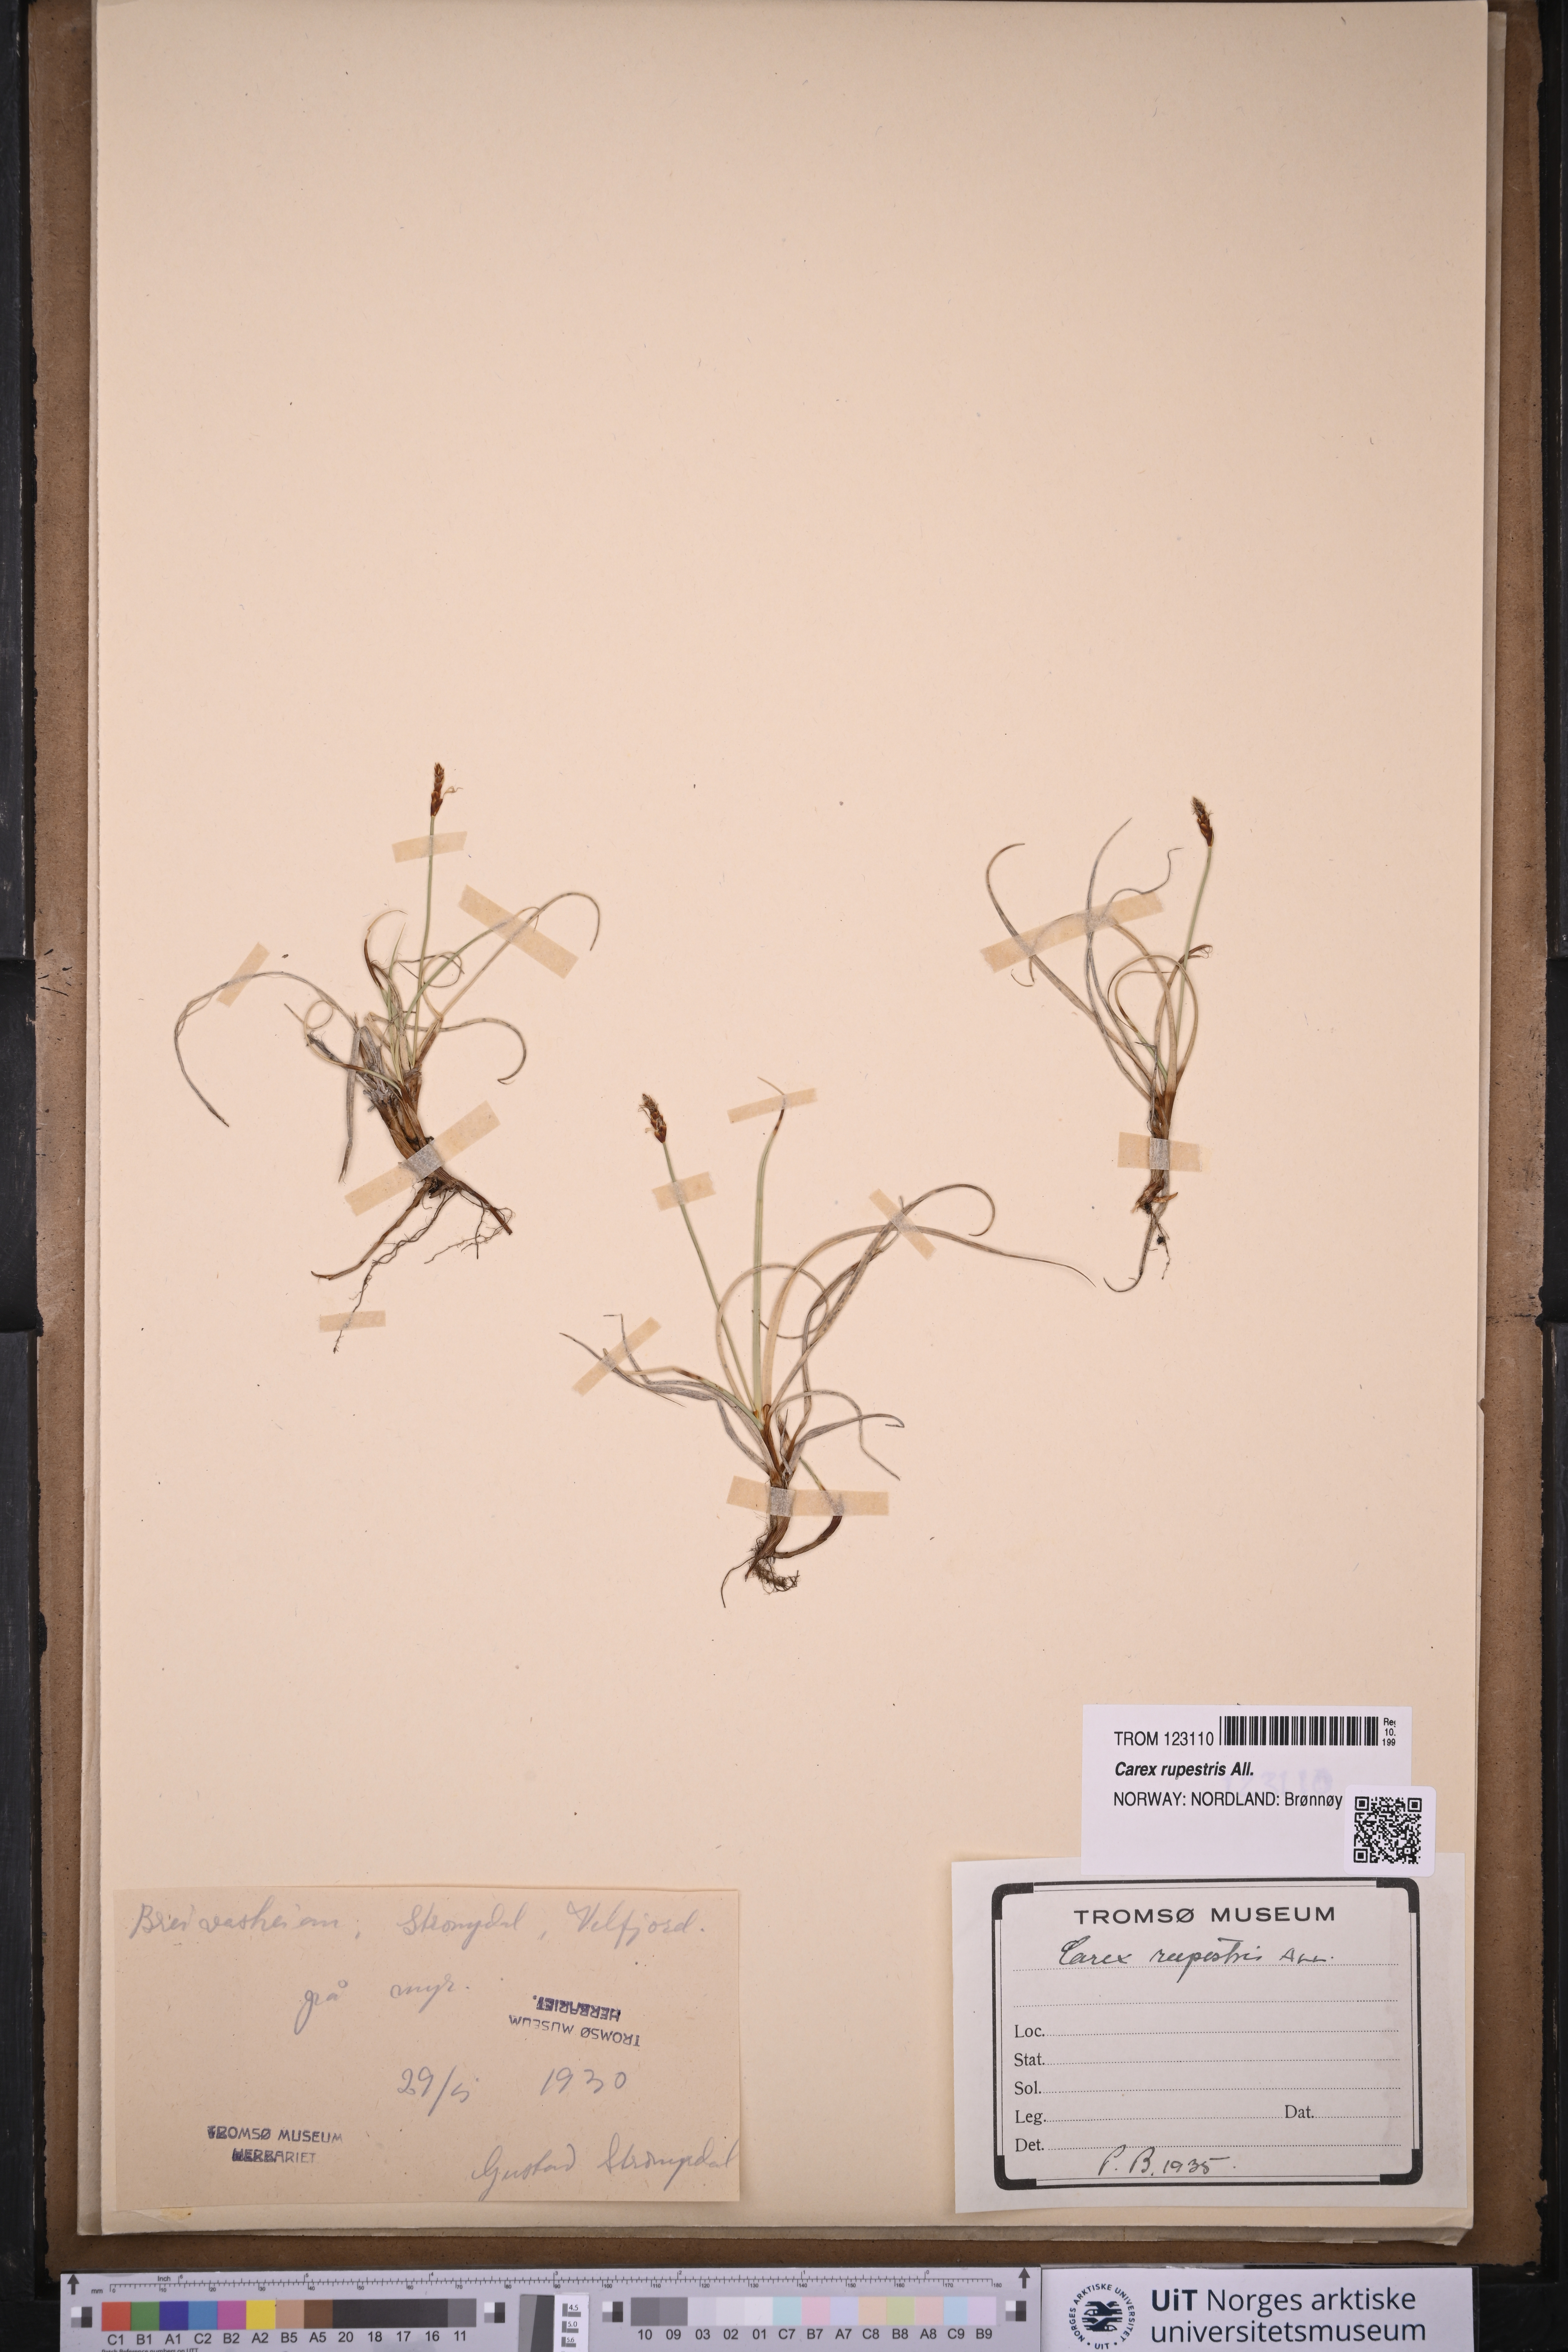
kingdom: Plantae
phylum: Tracheophyta
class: Liliopsida
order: Poales
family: Cyperaceae
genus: Carex
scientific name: Carex rupestris
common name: Rock sedge
